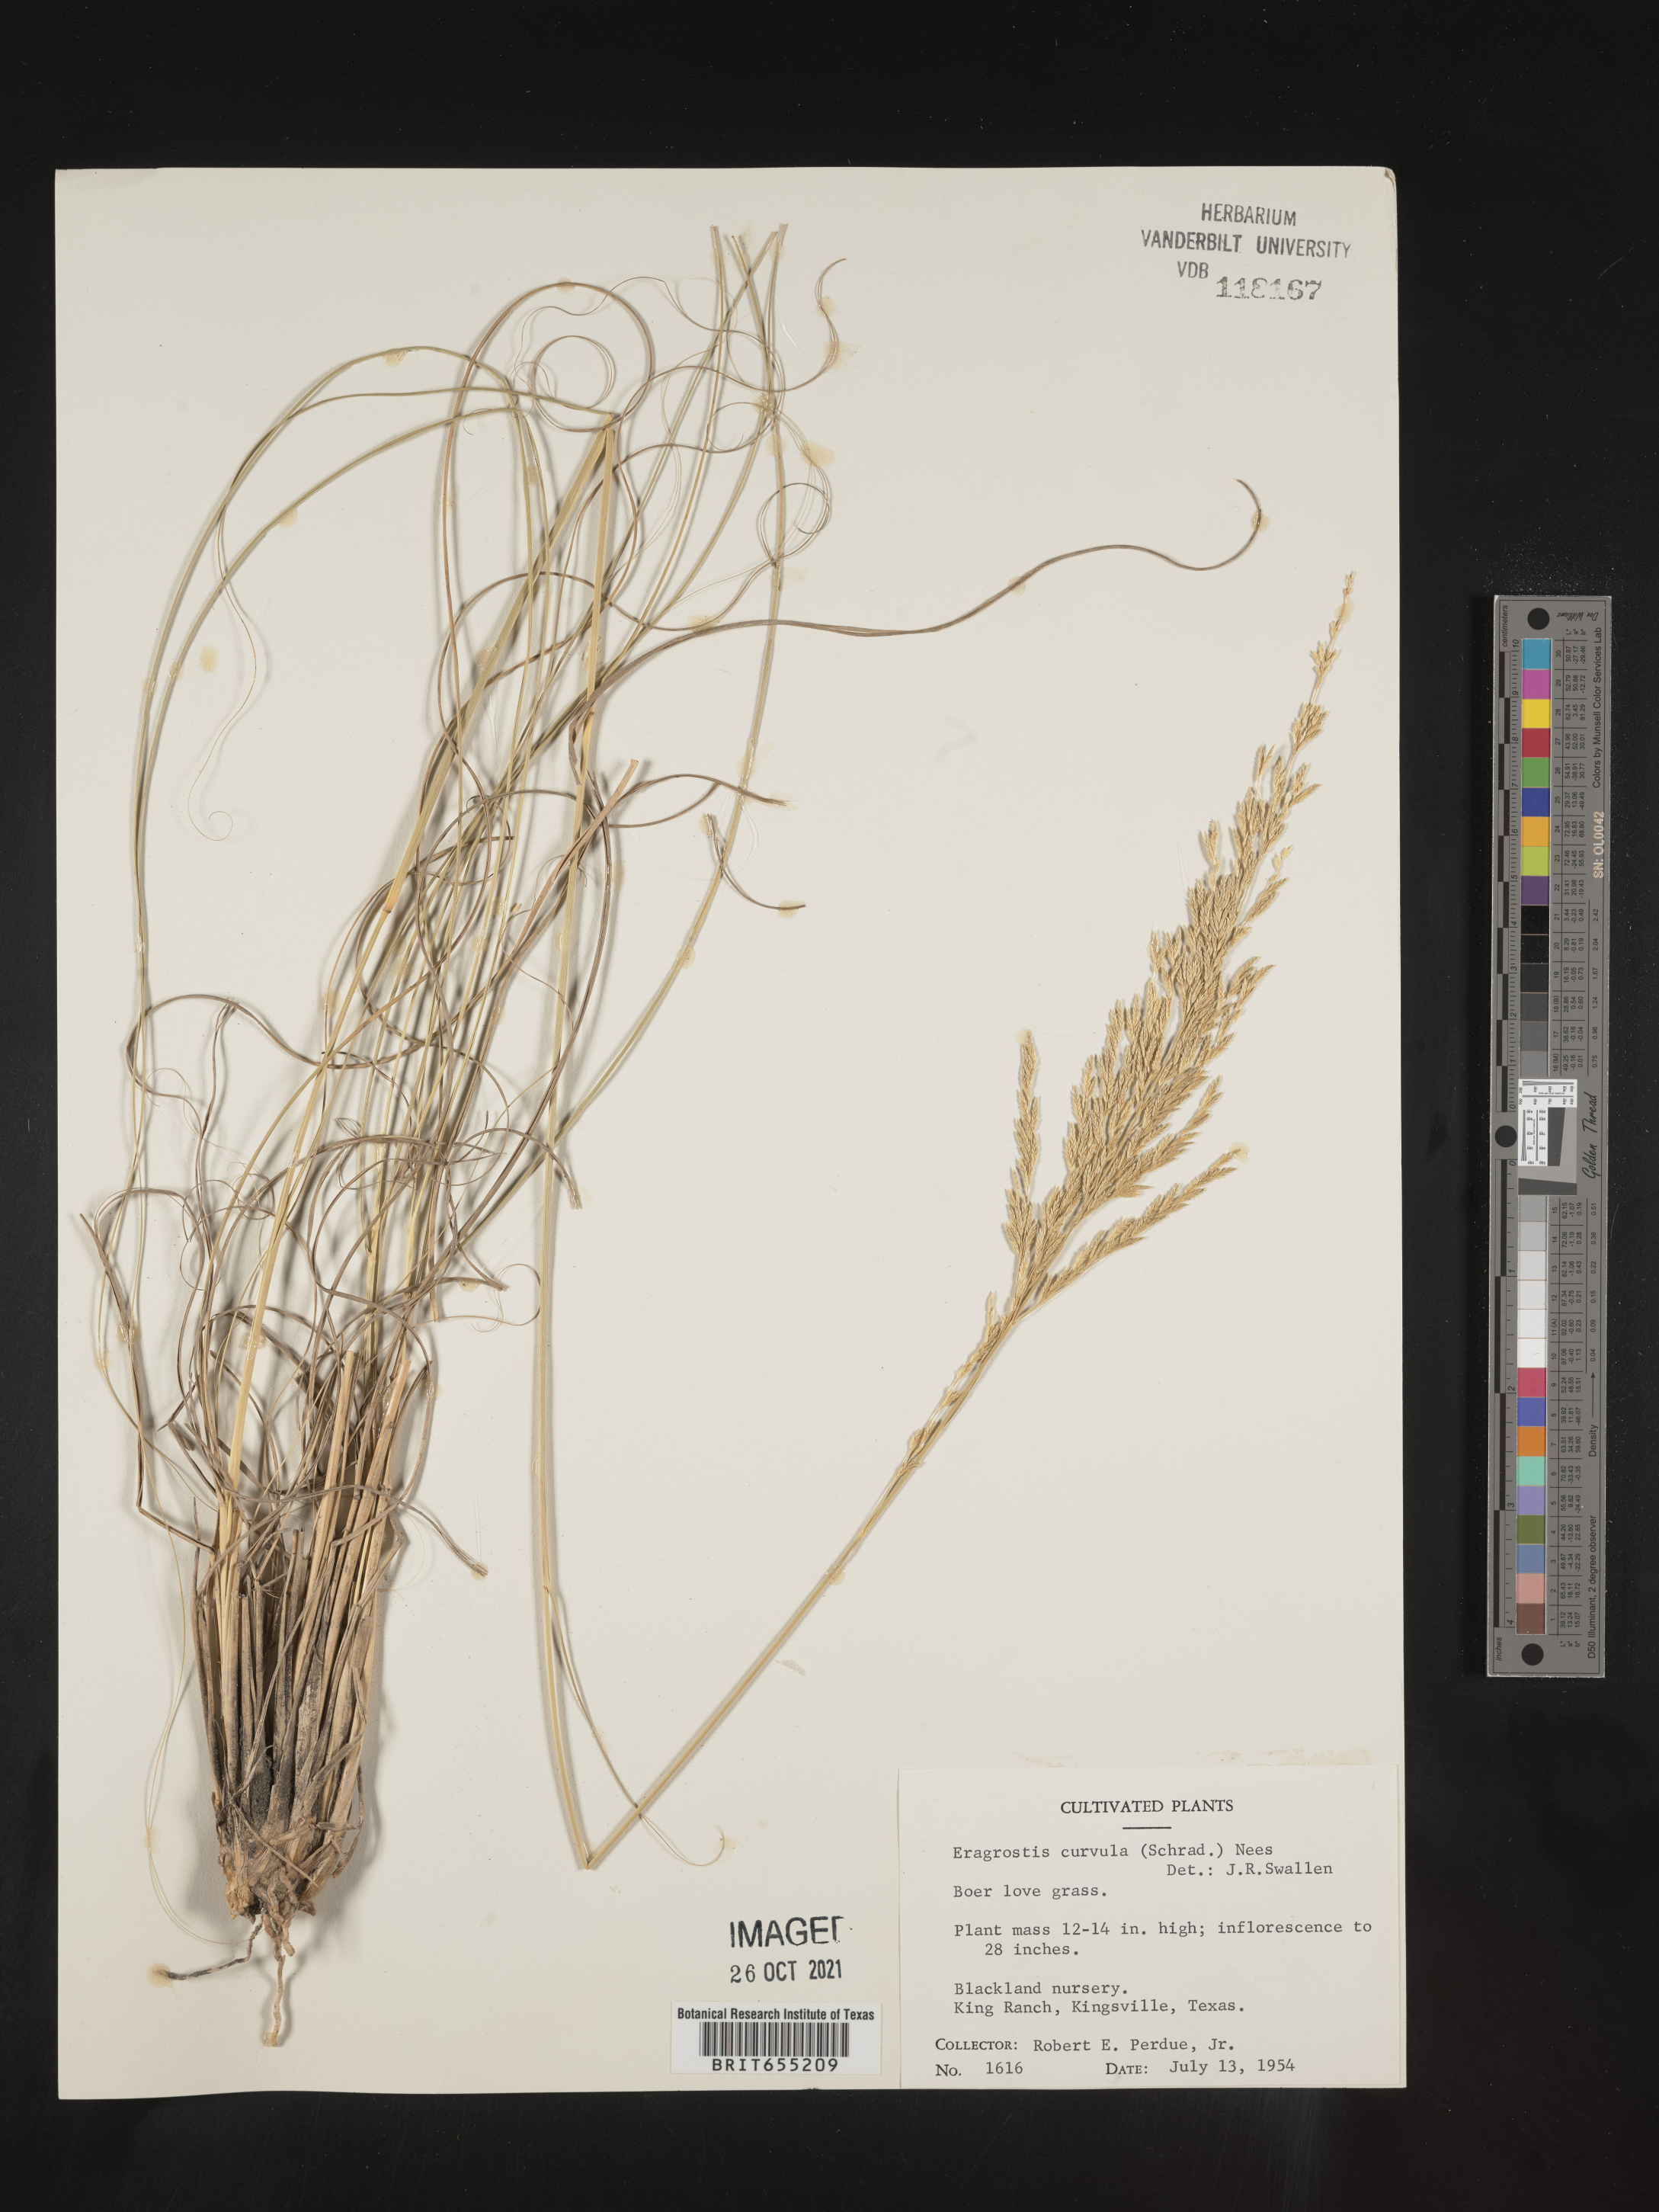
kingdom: Plantae
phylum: Tracheophyta
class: Liliopsida
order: Poales
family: Poaceae
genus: Eragrostis
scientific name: Eragrostis
